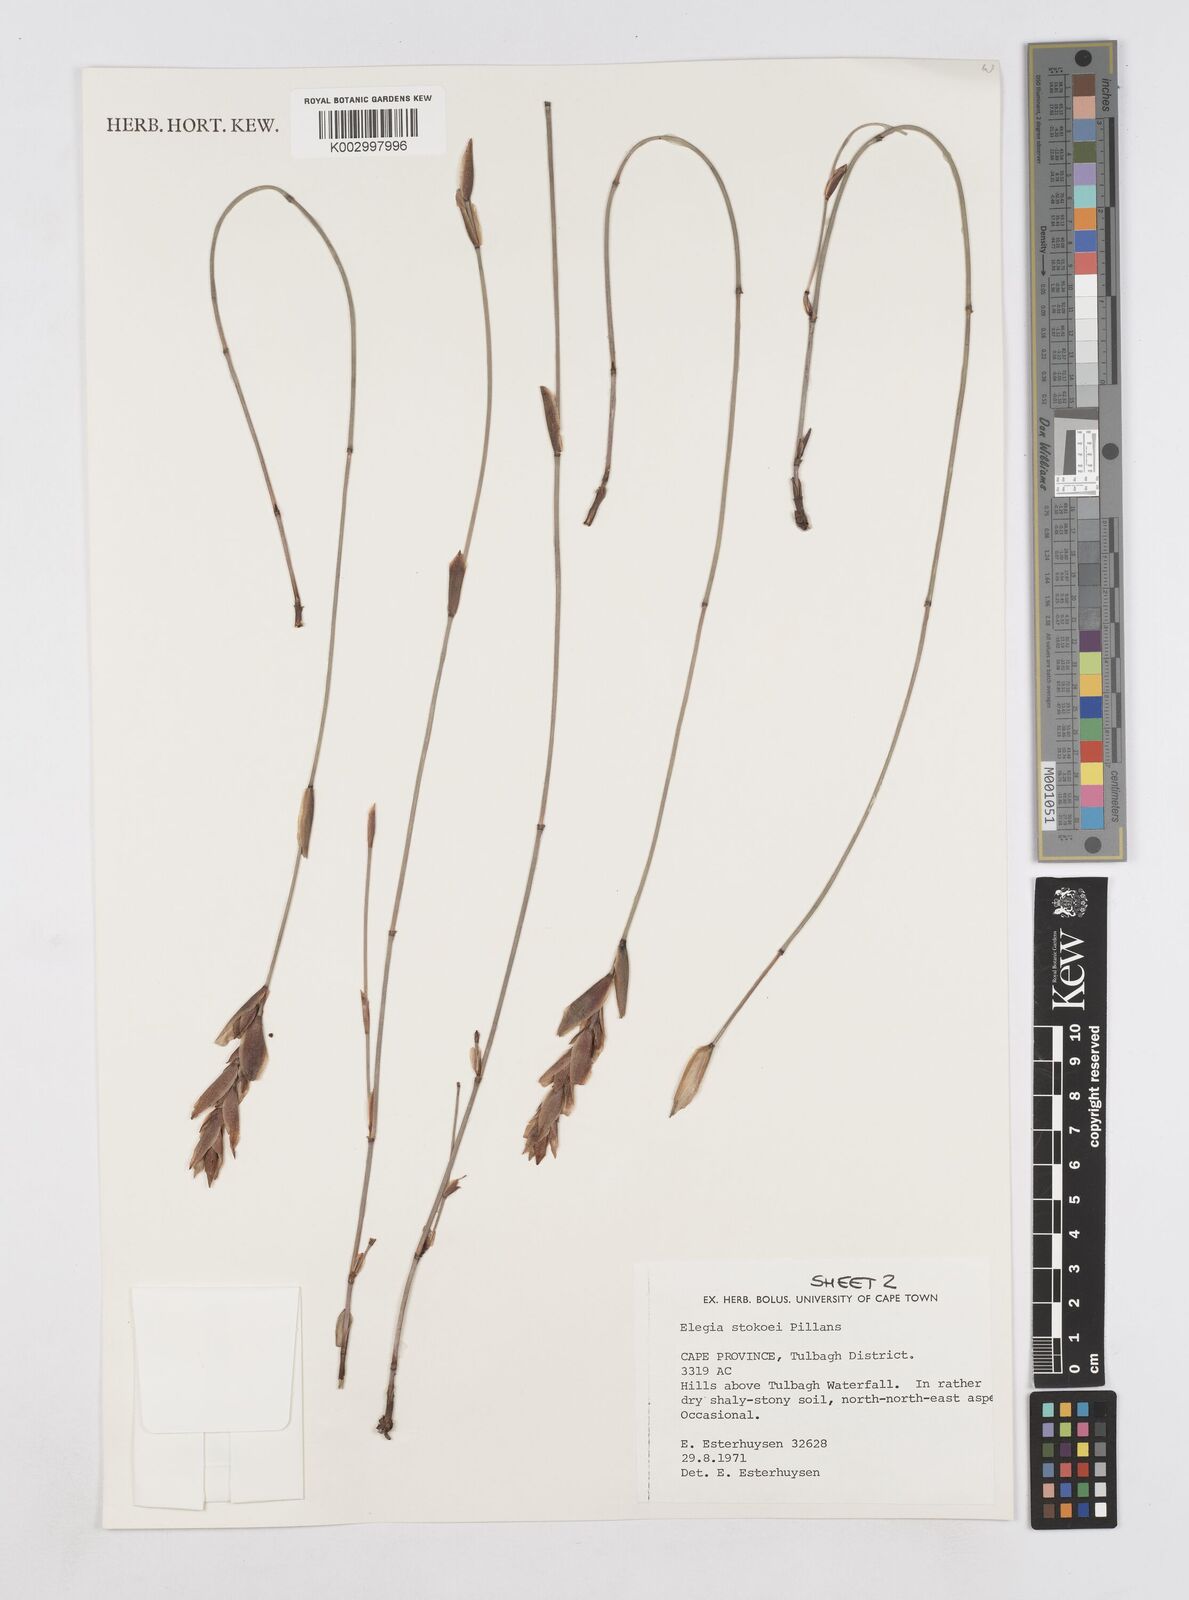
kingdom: Plantae
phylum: Tracheophyta
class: Liliopsida
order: Poales
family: Restionaceae
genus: Elegia
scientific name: Elegia stokoei
